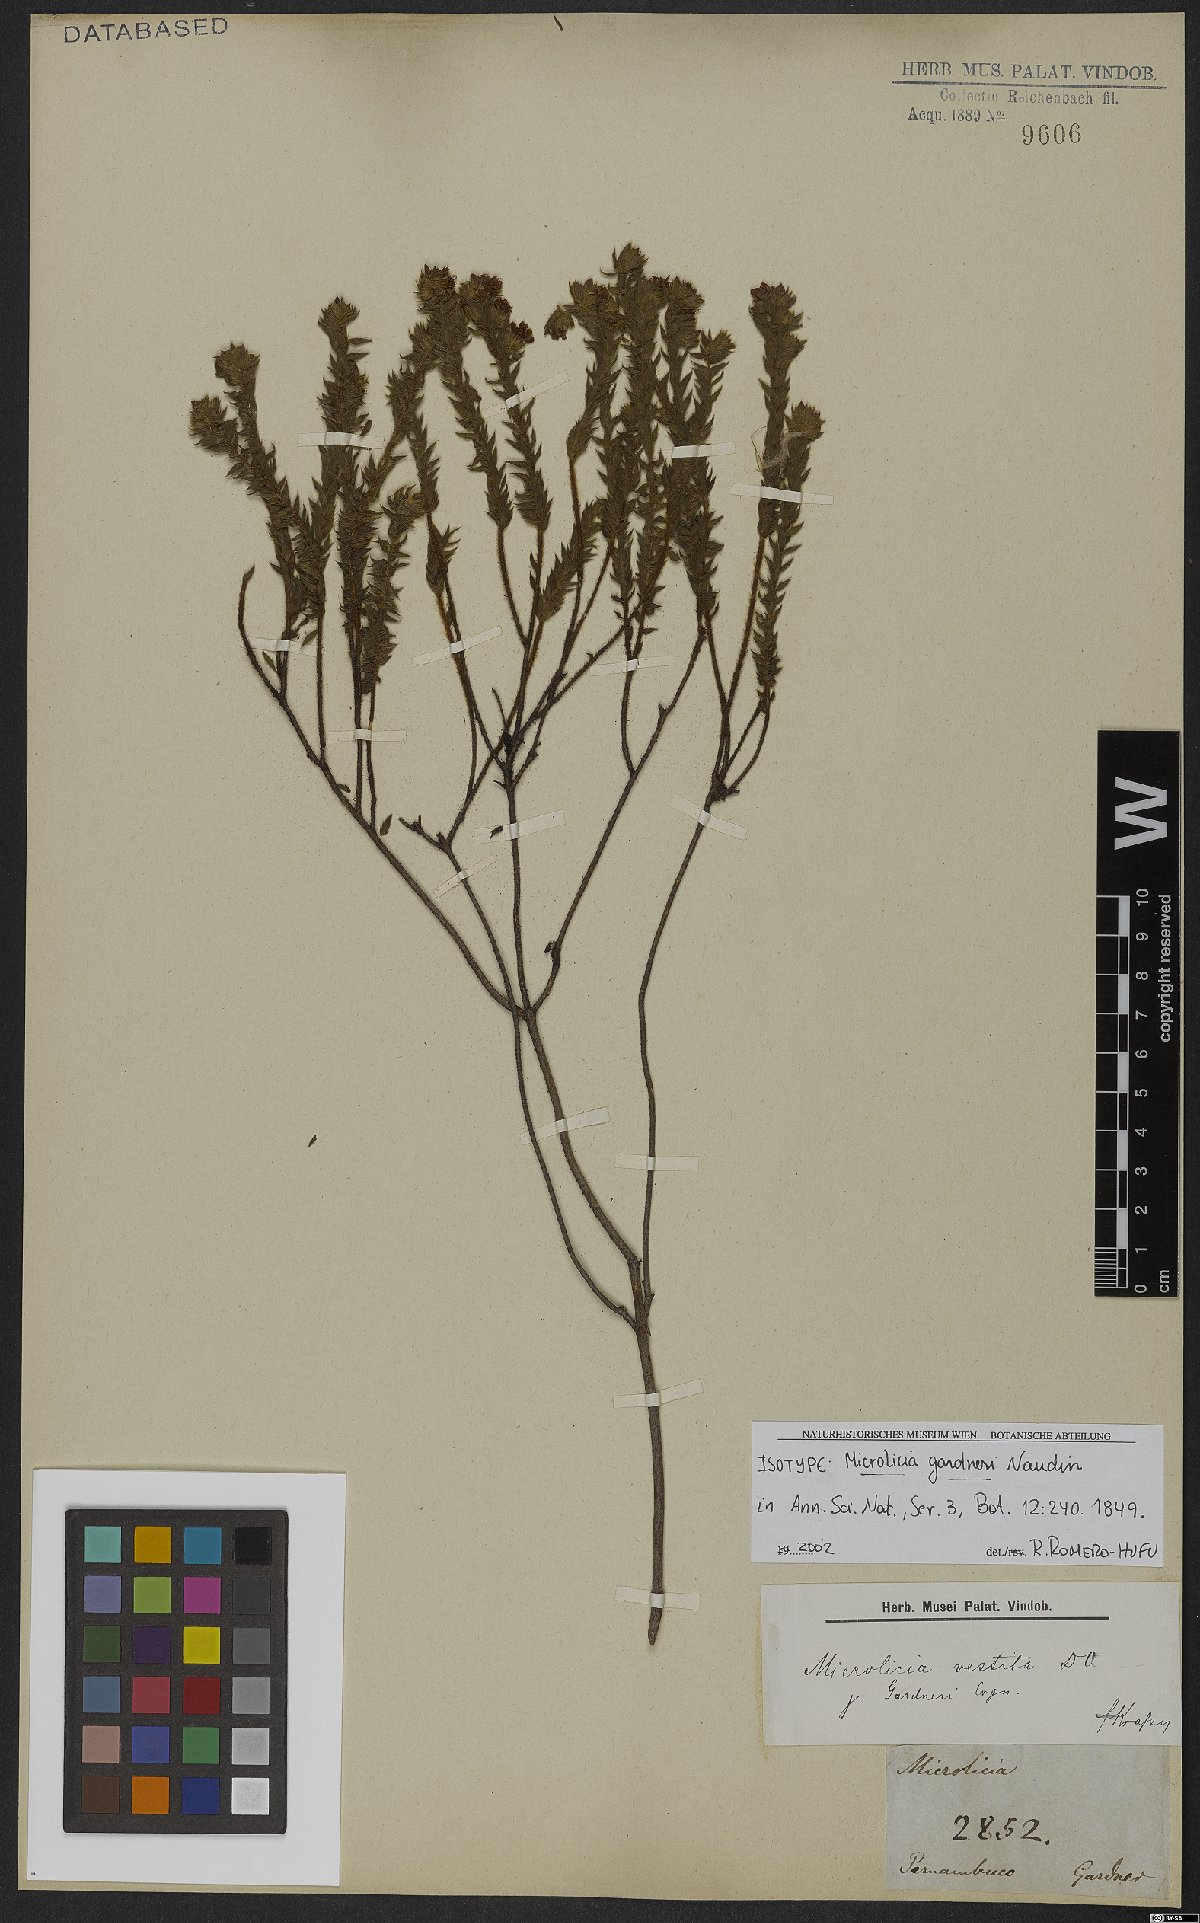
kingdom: Plantae
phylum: Tracheophyta
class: Magnoliopsida
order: Myrtales
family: Melastomataceae
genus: Microlicia
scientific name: Microlicia vestita
